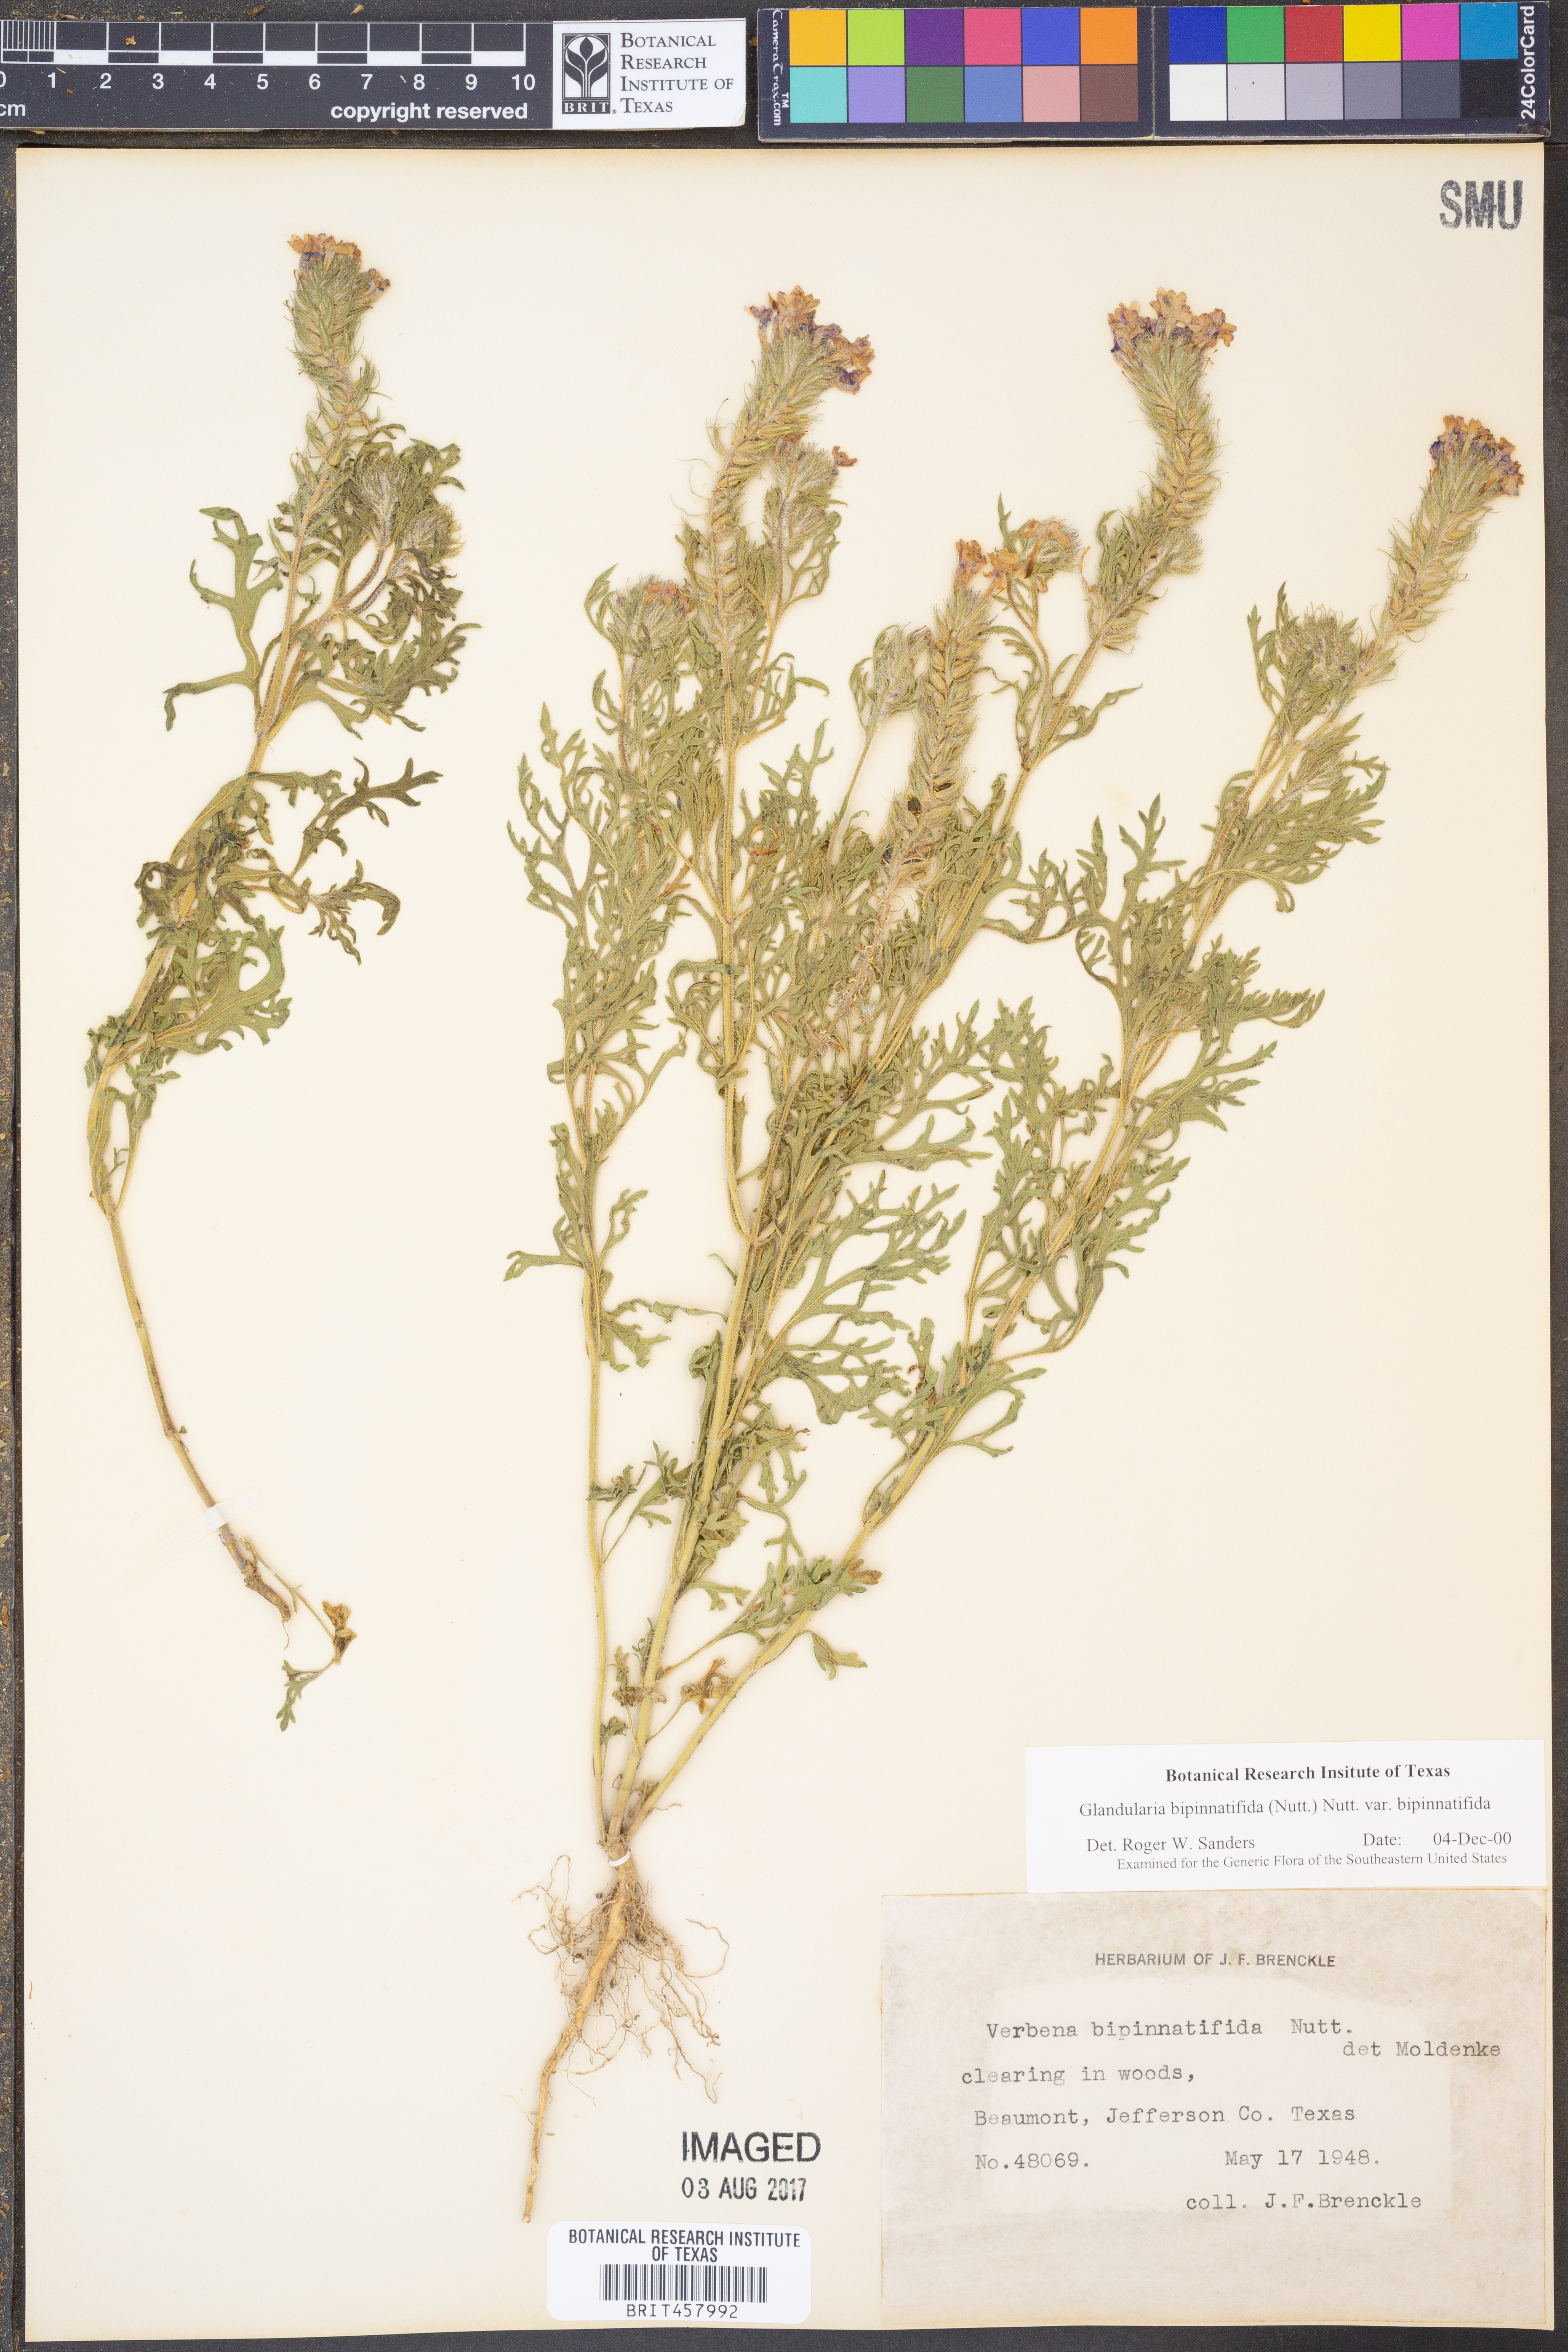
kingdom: Plantae
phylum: Tracheophyta
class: Magnoliopsida
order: Lamiales
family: Verbenaceae
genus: Verbena
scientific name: Verbena bipinnatifida
